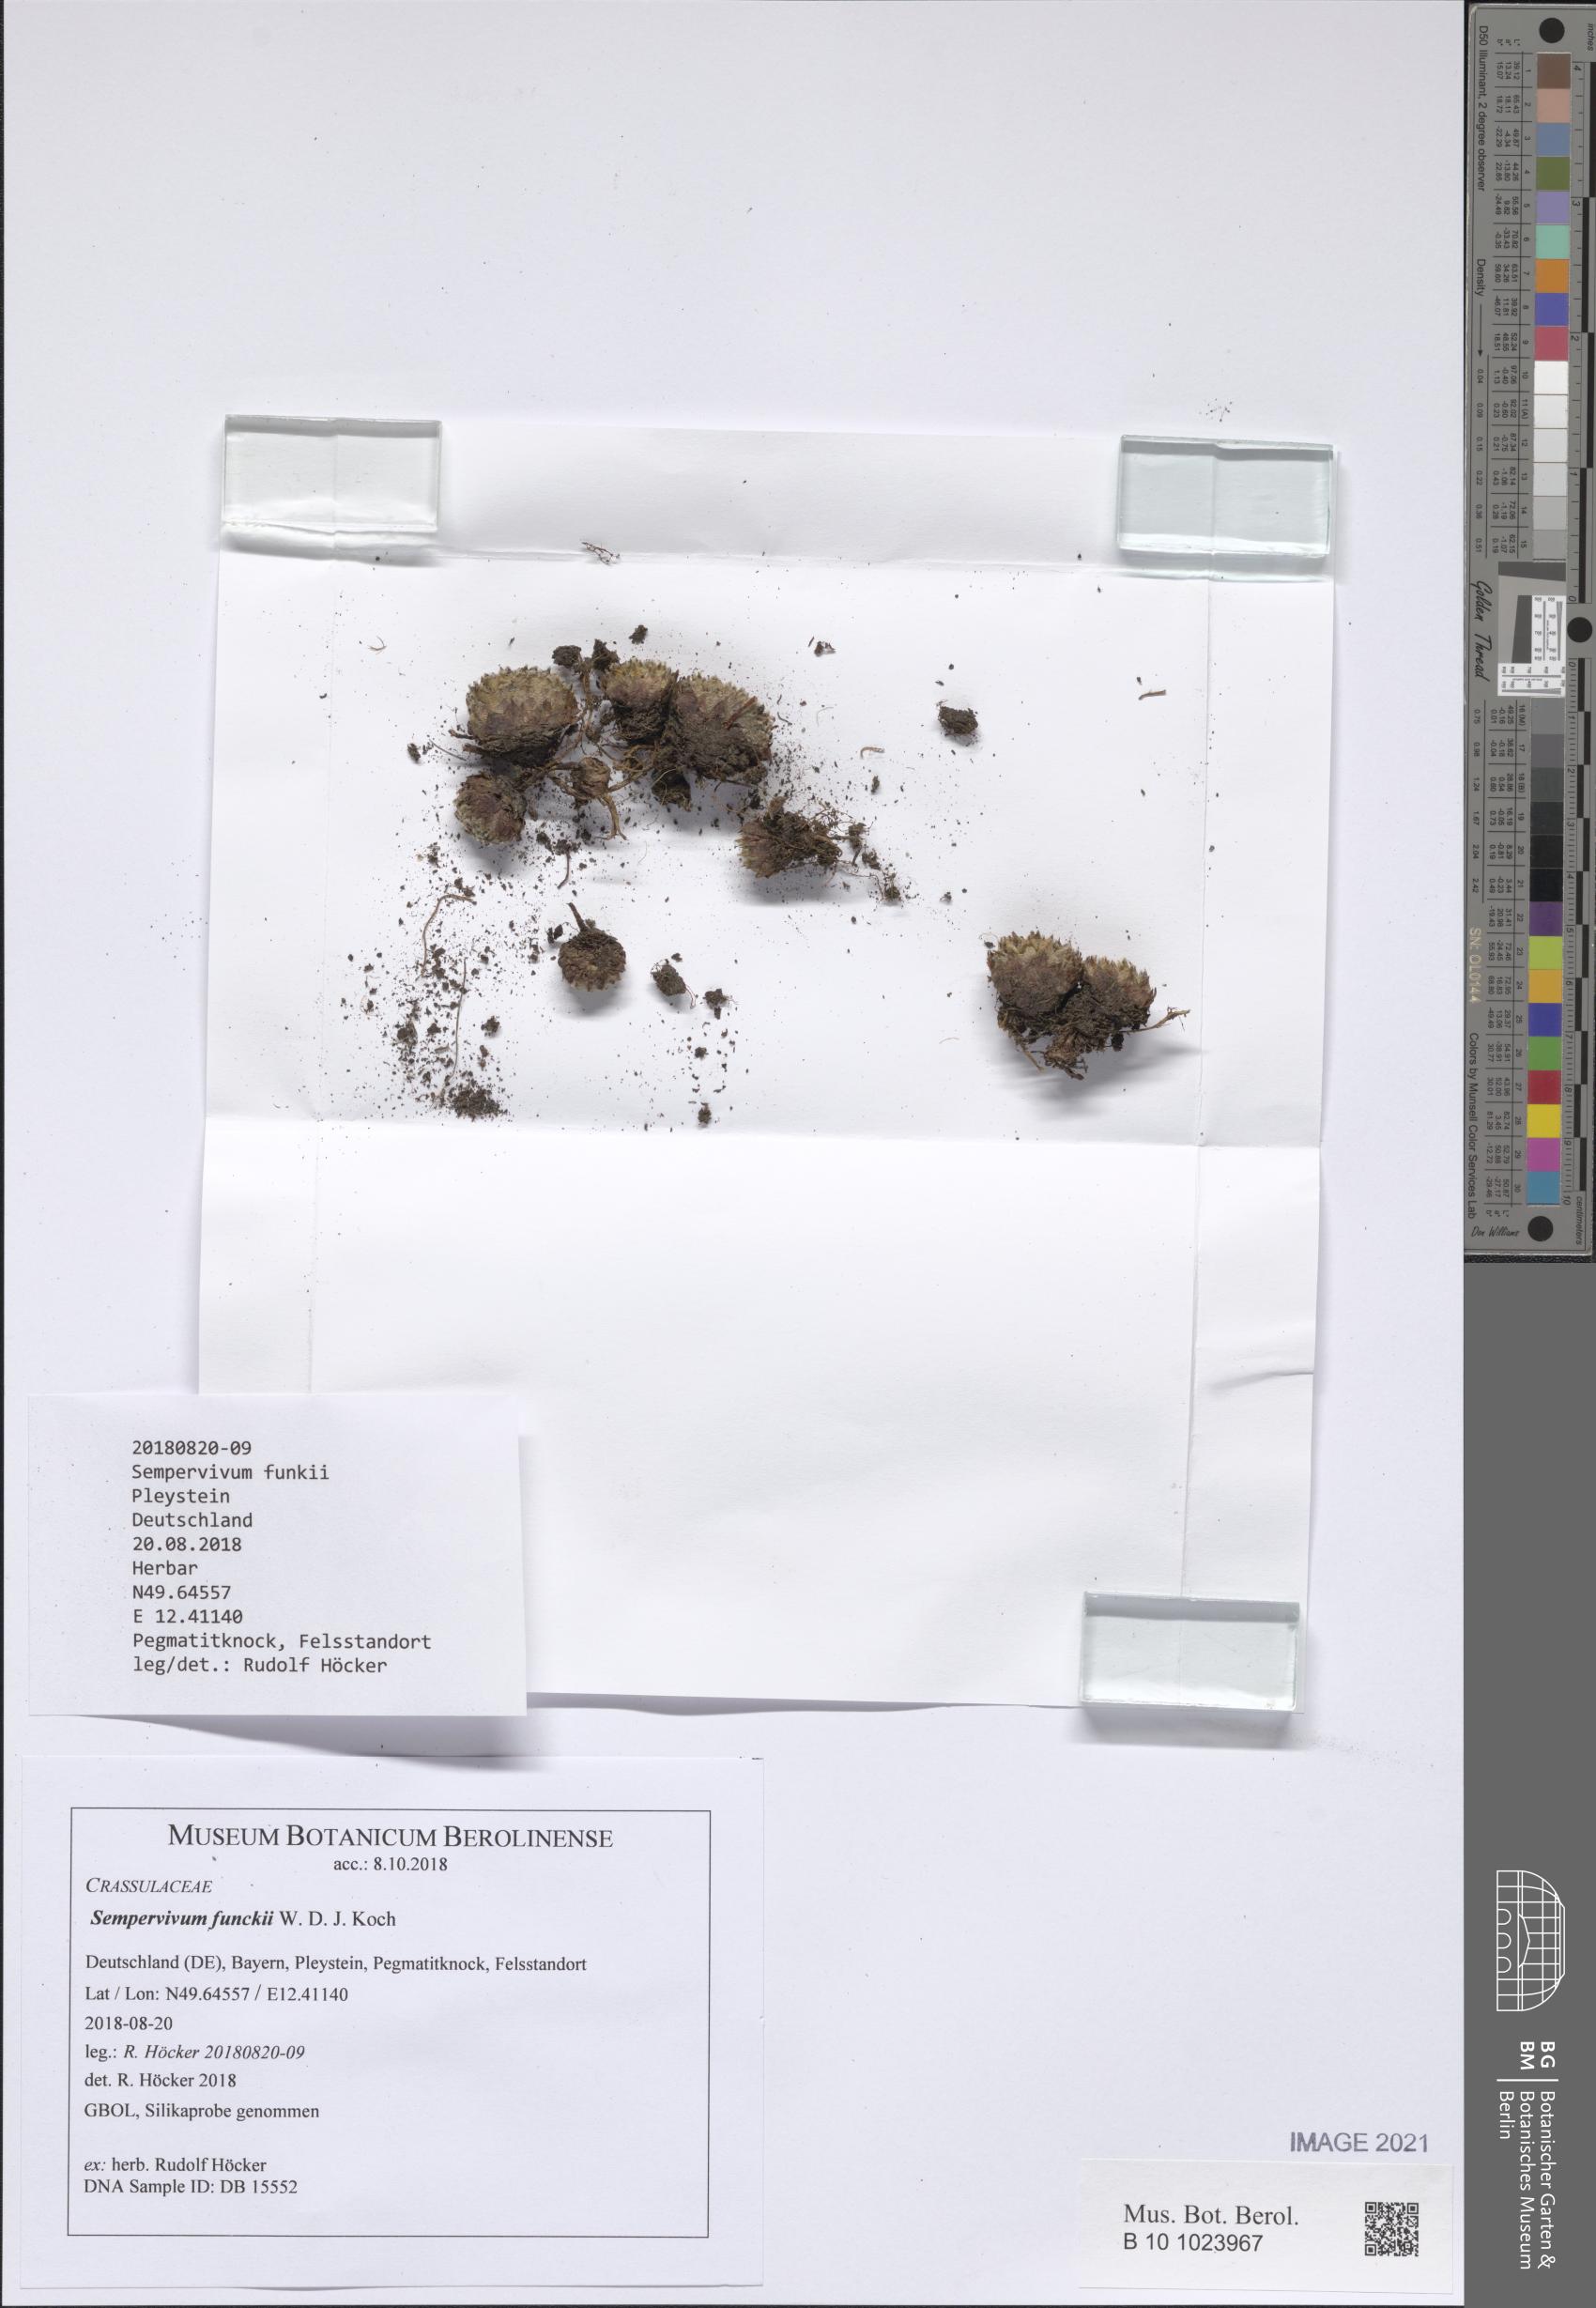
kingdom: Plantae
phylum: Tracheophyta
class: Magnoliopsida
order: Saxifragales
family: Crassulaceae
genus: Sempervivum
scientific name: Sempervivum funckii
